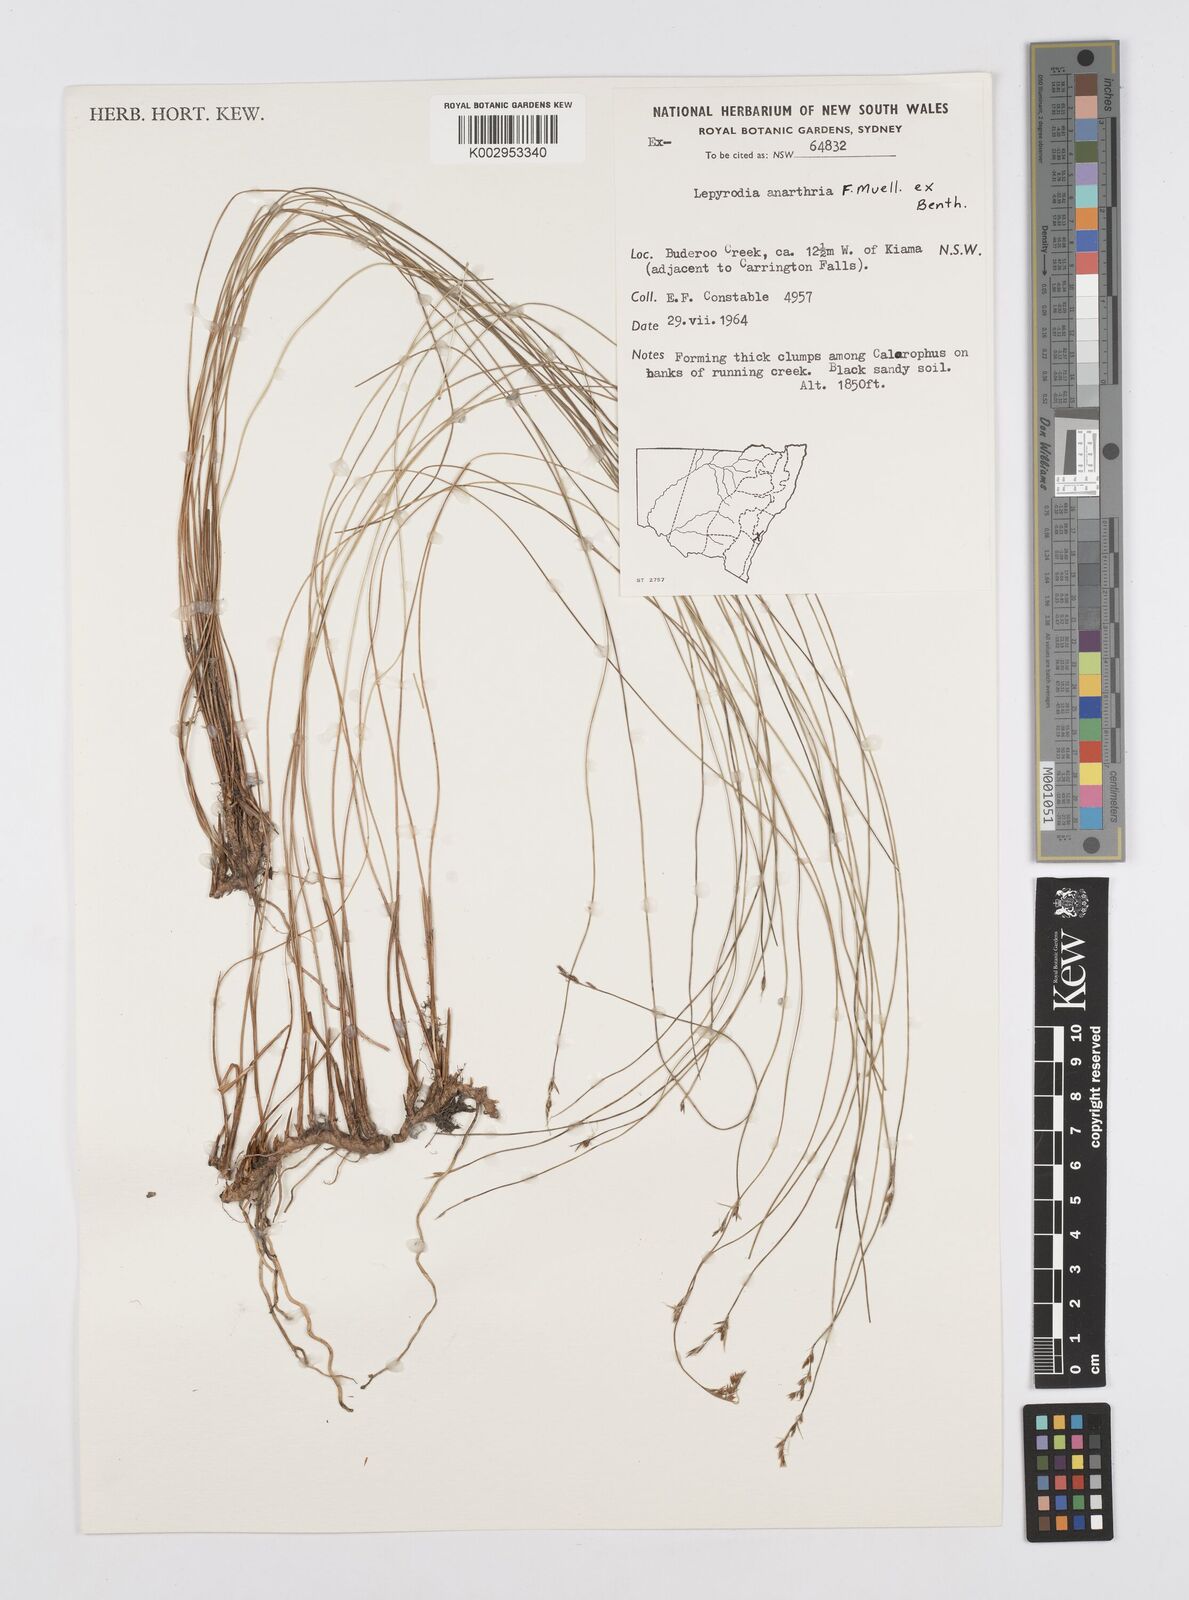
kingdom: Plantae
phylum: Tracheophyta
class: Liliopsida
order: Poales
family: Restionaceae
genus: Lepyrodia
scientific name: Lepyrodia anarthria
